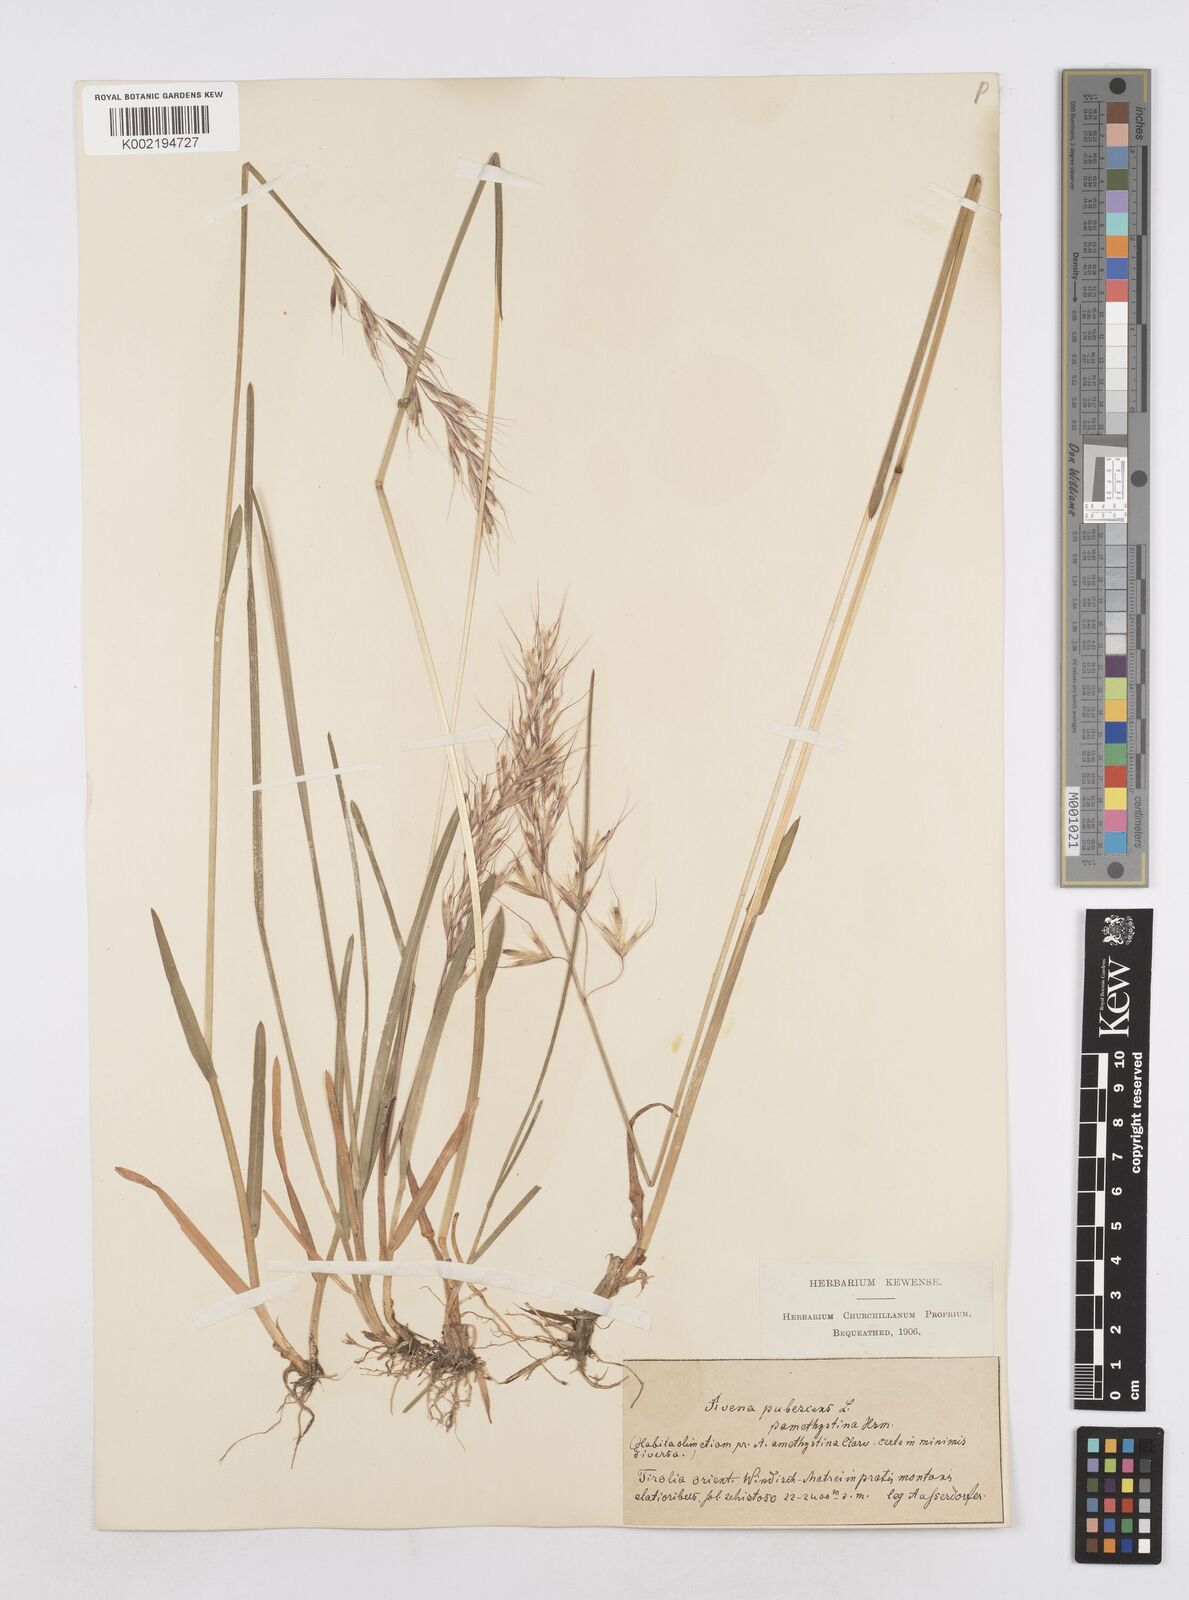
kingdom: Plantae
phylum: Tracheophyta
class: Liliopsida
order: Poales
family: Poaceae
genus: Avenula
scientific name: Avenula pubescens
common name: Downy alpine oatgrass
